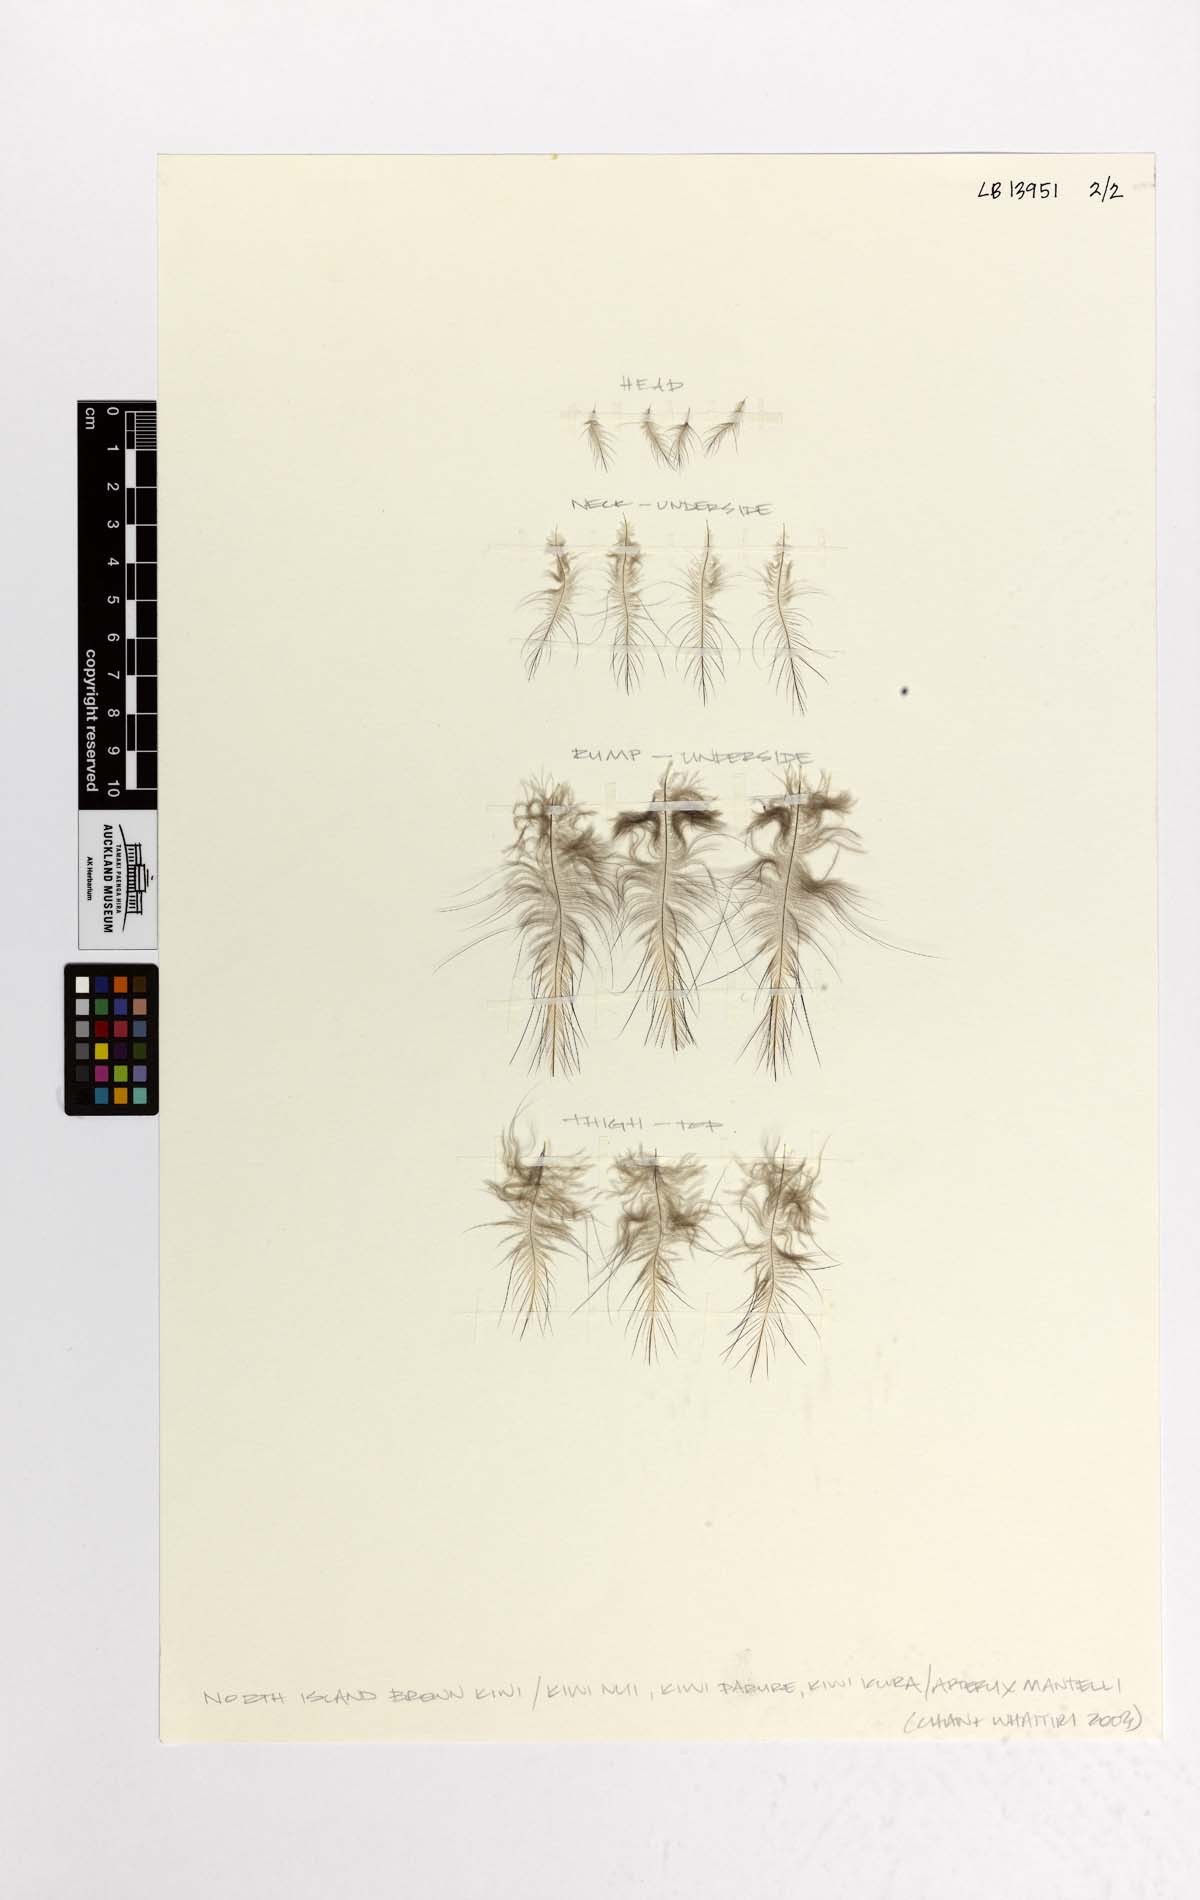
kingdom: Animalia
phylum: Chordata
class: Aves
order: Apterygiformes
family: Apterygidae
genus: Apteryx
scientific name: Apteryx mantelli
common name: North island brown kiwi
